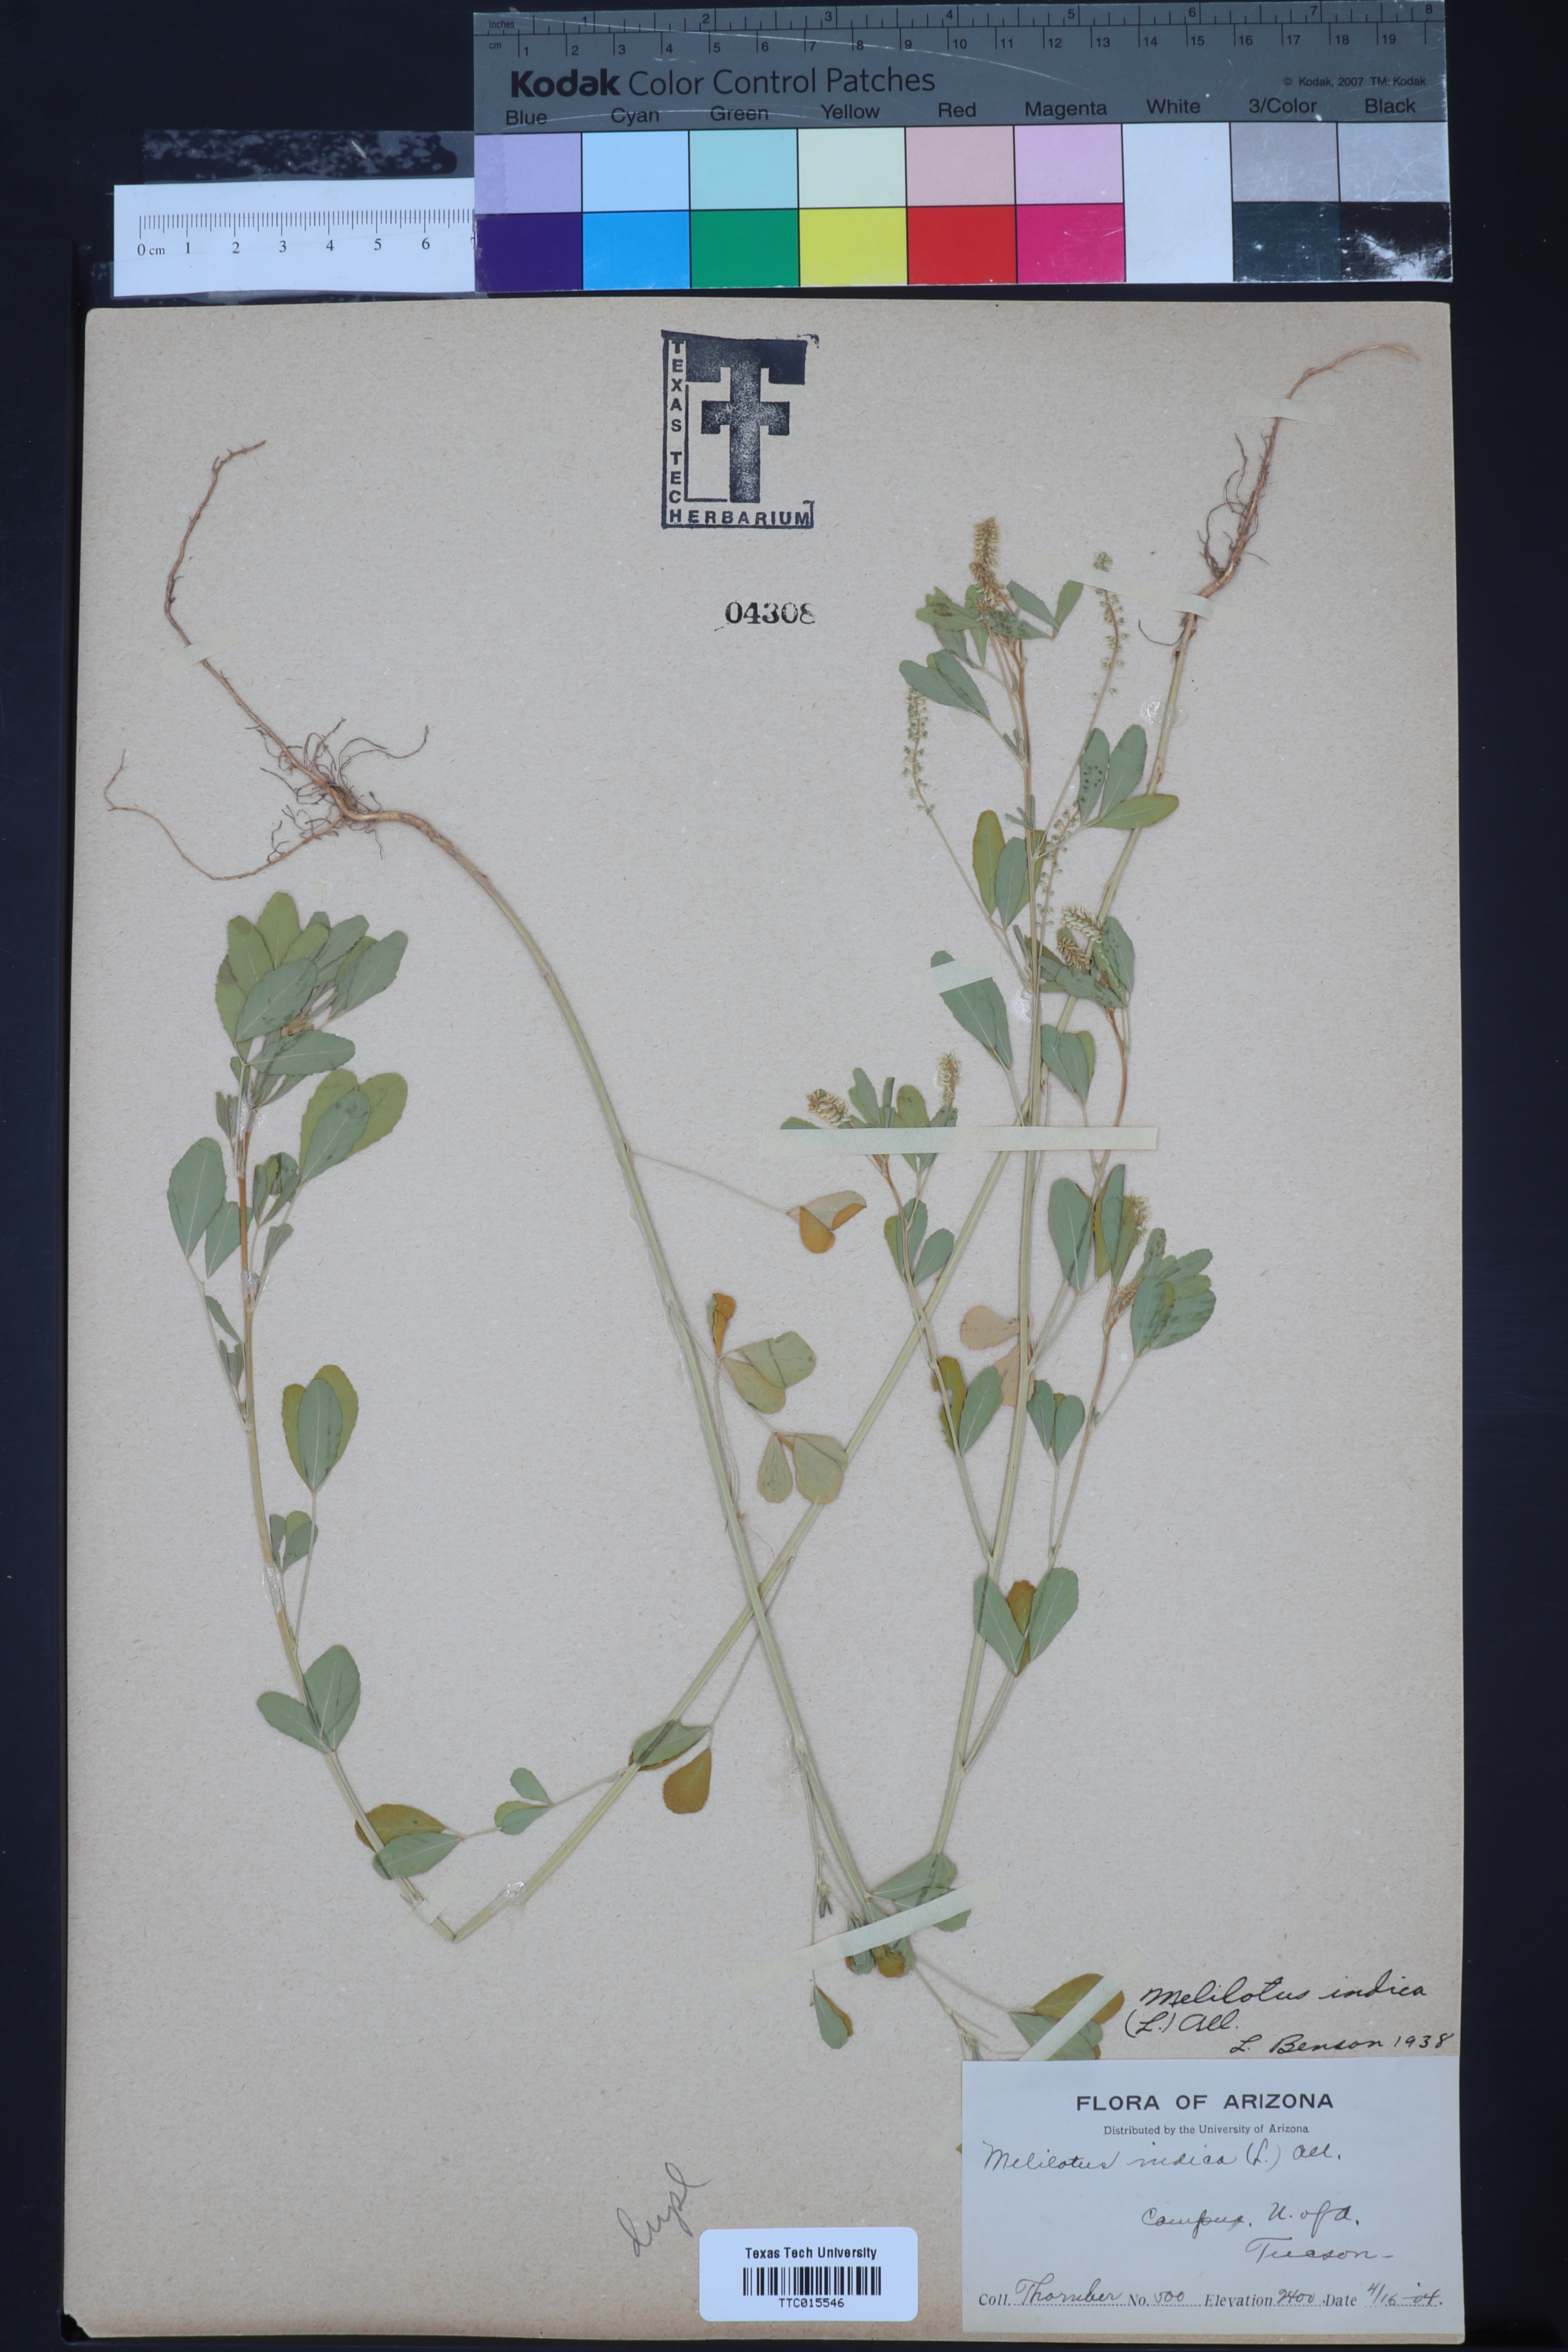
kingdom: Plantae
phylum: Tracheophyta
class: Magnoliopsida
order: Fabales
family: Fabaceae
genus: Melilotus
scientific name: Melilotus indicus
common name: Small melilot
